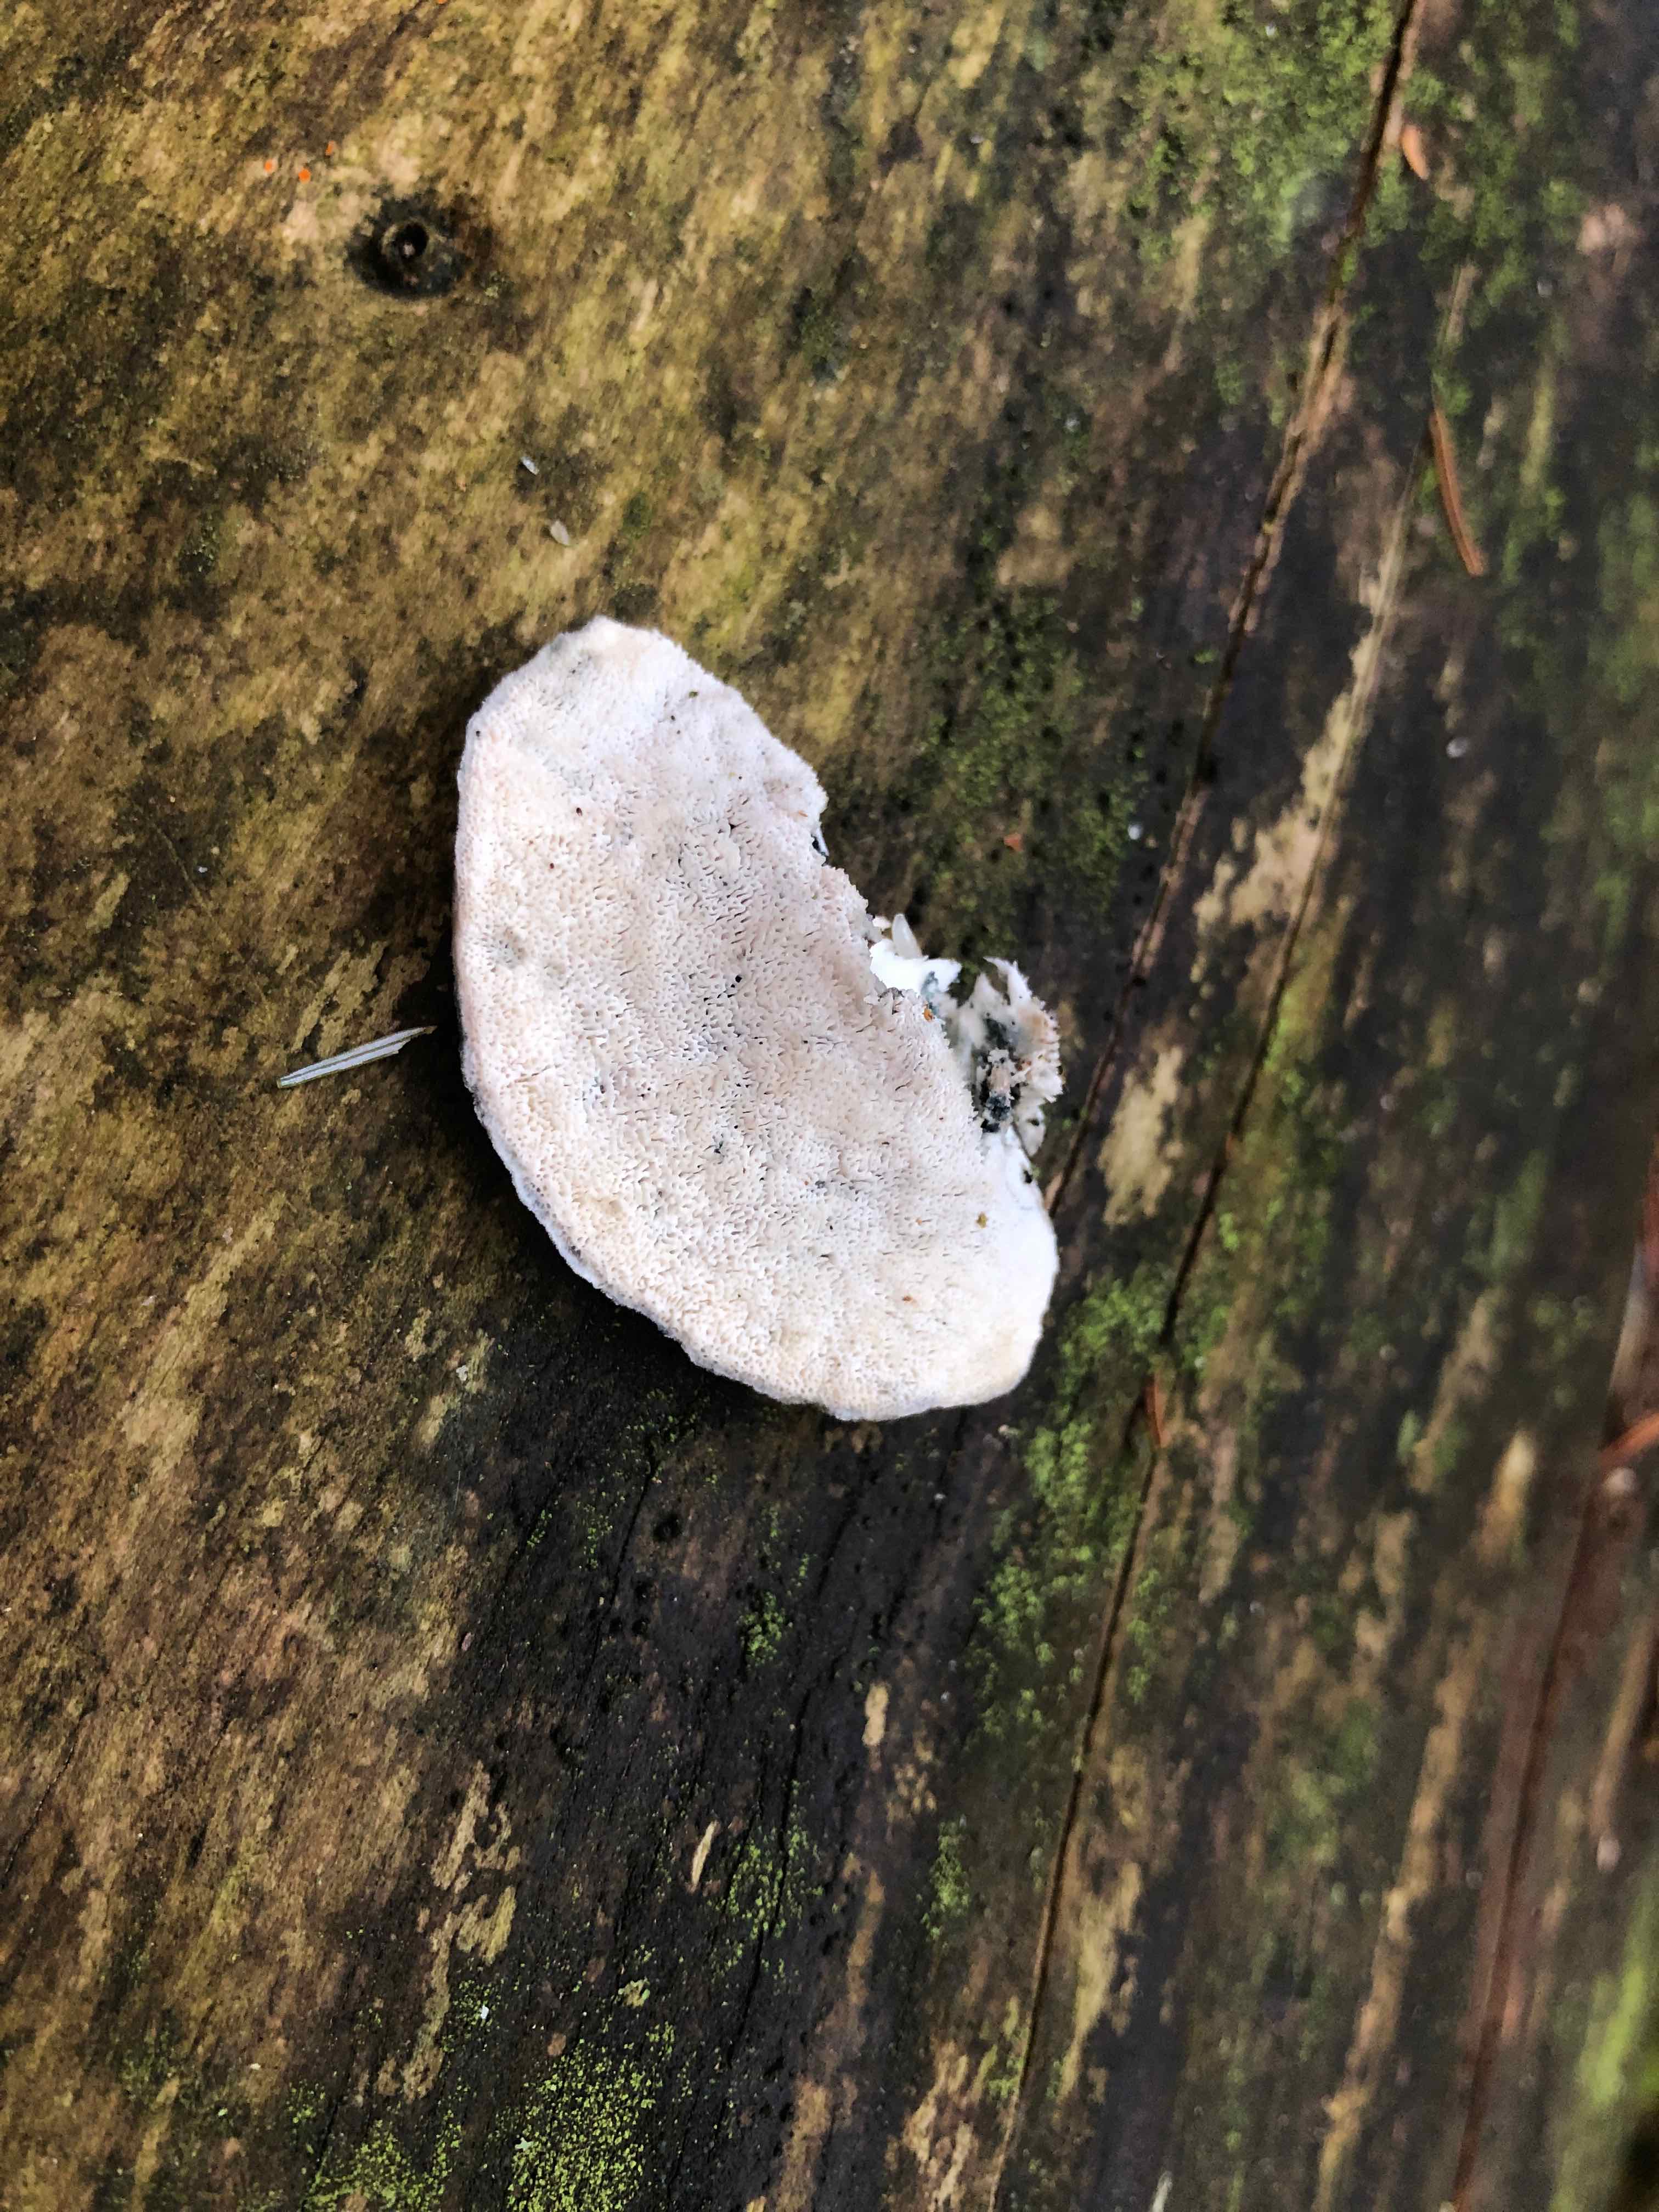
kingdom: Fungi
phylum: Basidiomycota
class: Agaricomycetes
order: Polyporales
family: Polyporaceae
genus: Cyanosporus
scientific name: Cyanosporus caesius
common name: blålig kødporesvamp
